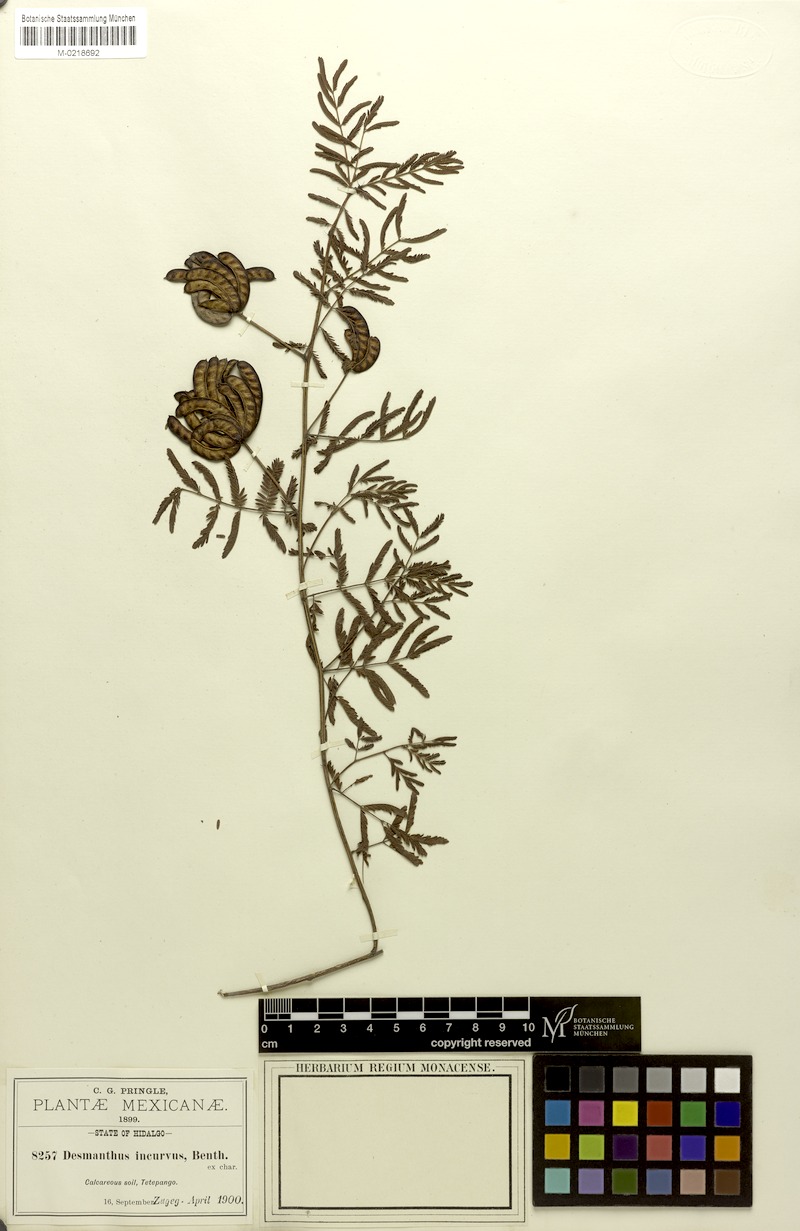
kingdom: Plantae
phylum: Tracheophyta
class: Magnoliopsida
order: Fabales
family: Fabaceae
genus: Desmanthus
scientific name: Desmanthus pumilus
